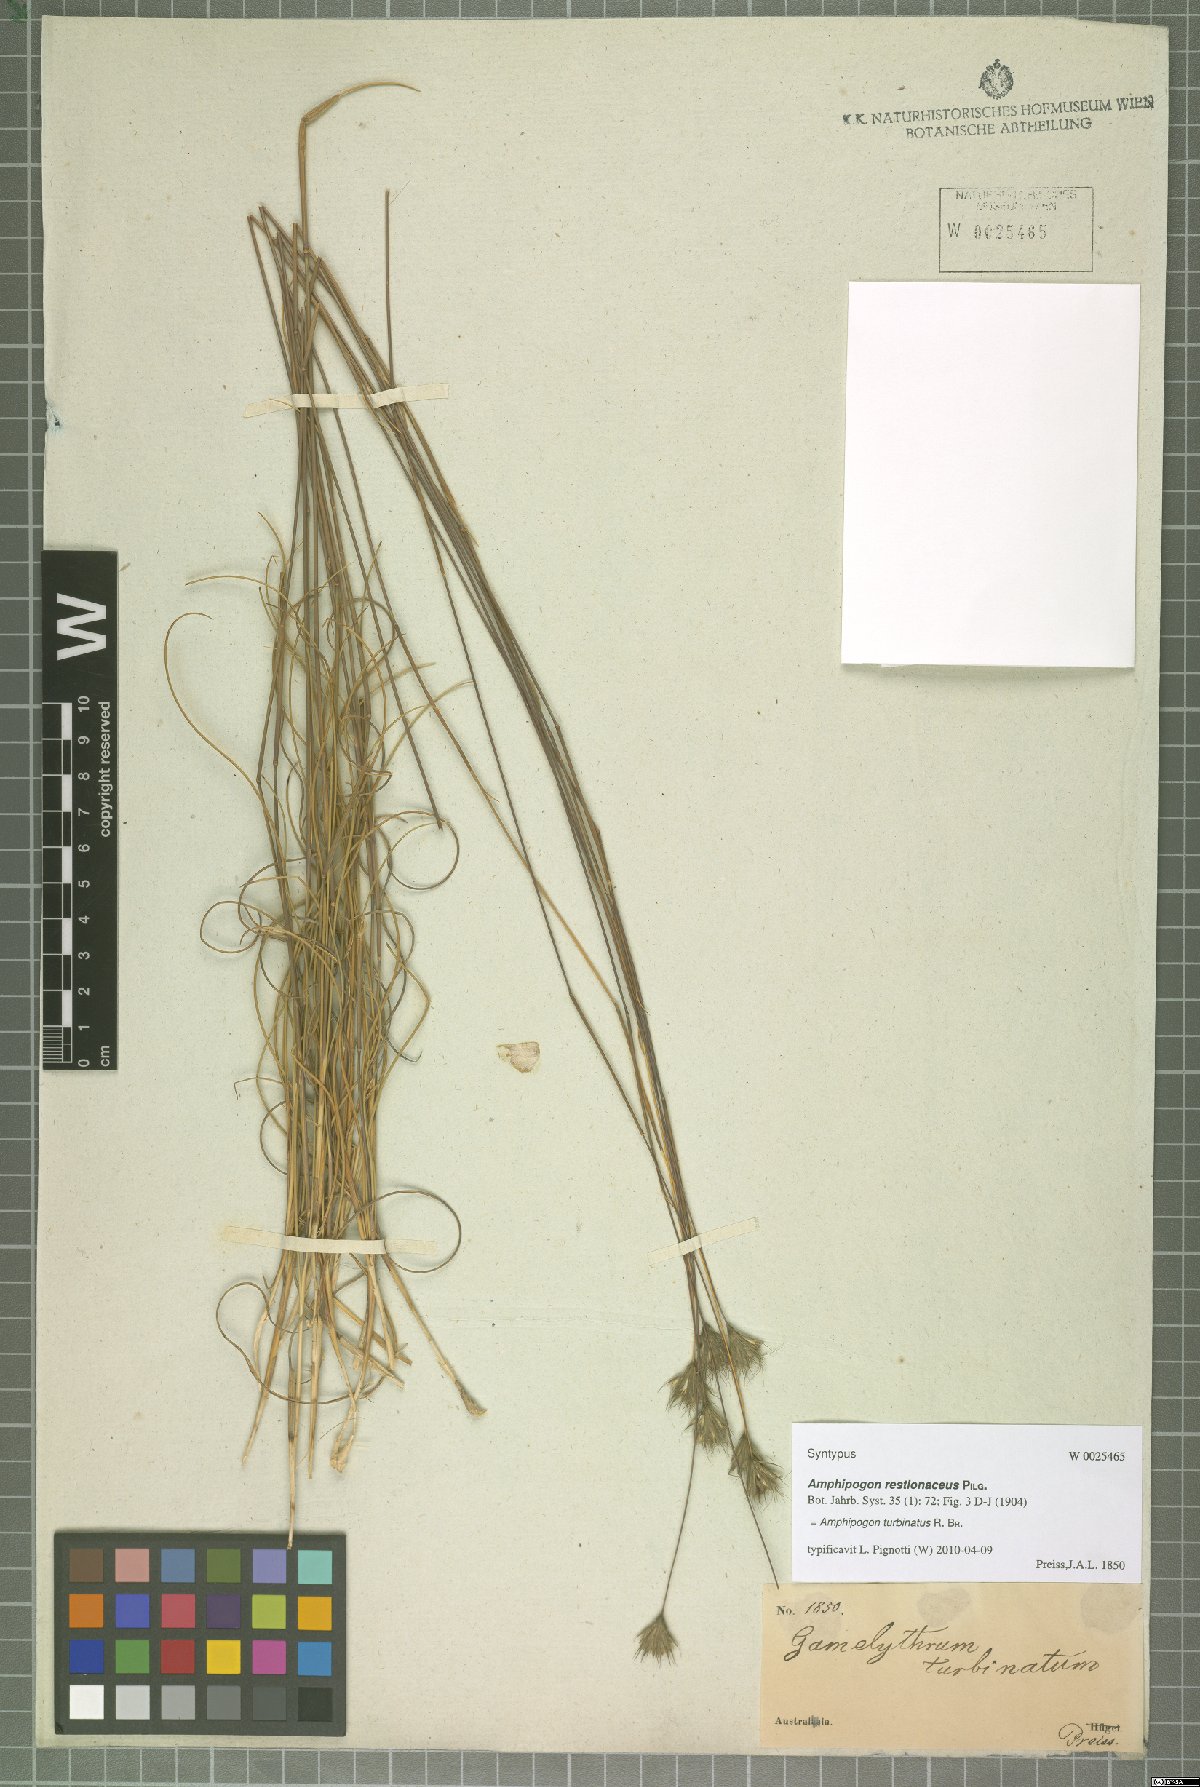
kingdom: Plantae
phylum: Tracheophyta
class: Liliopsida
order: Poales
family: Poaceae
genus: Amphipogon
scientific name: Amphipogon turbinatus
